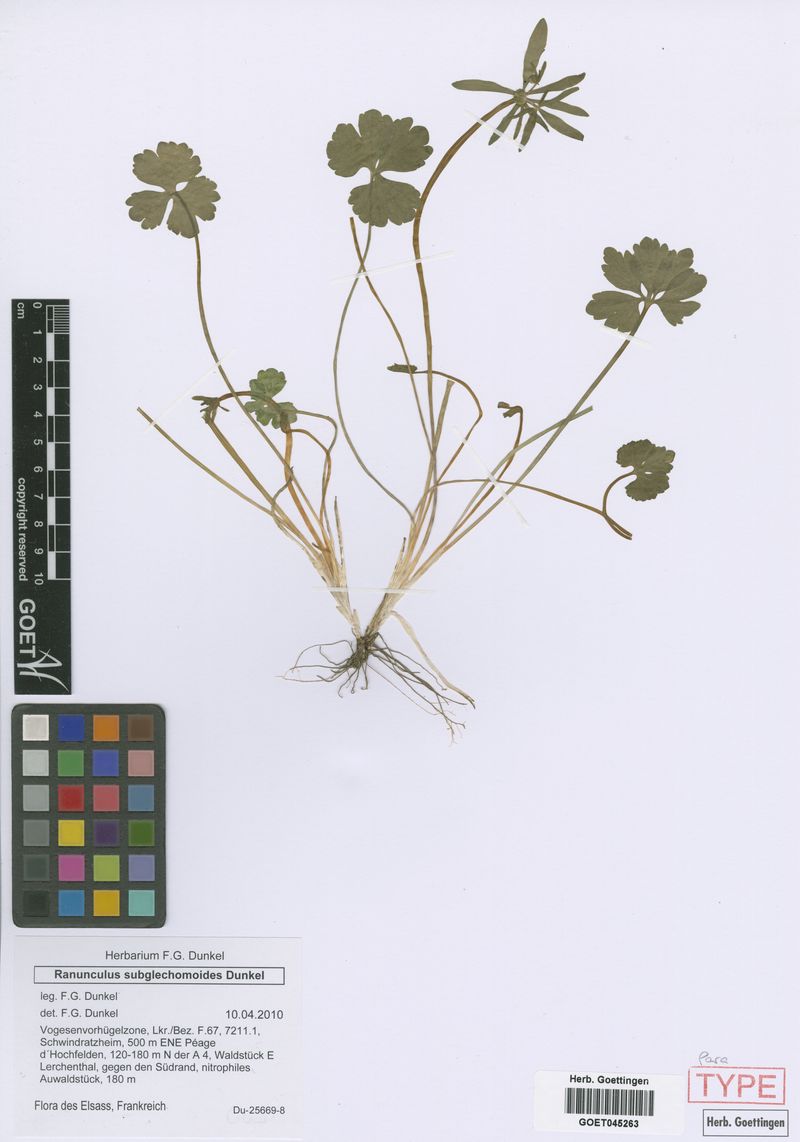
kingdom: Plantae
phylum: Tracheophyta
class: Magnoliopsida
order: Ranunculales
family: Ranunculaceae
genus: Ranunculus
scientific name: Ranunculus subglechomoides
